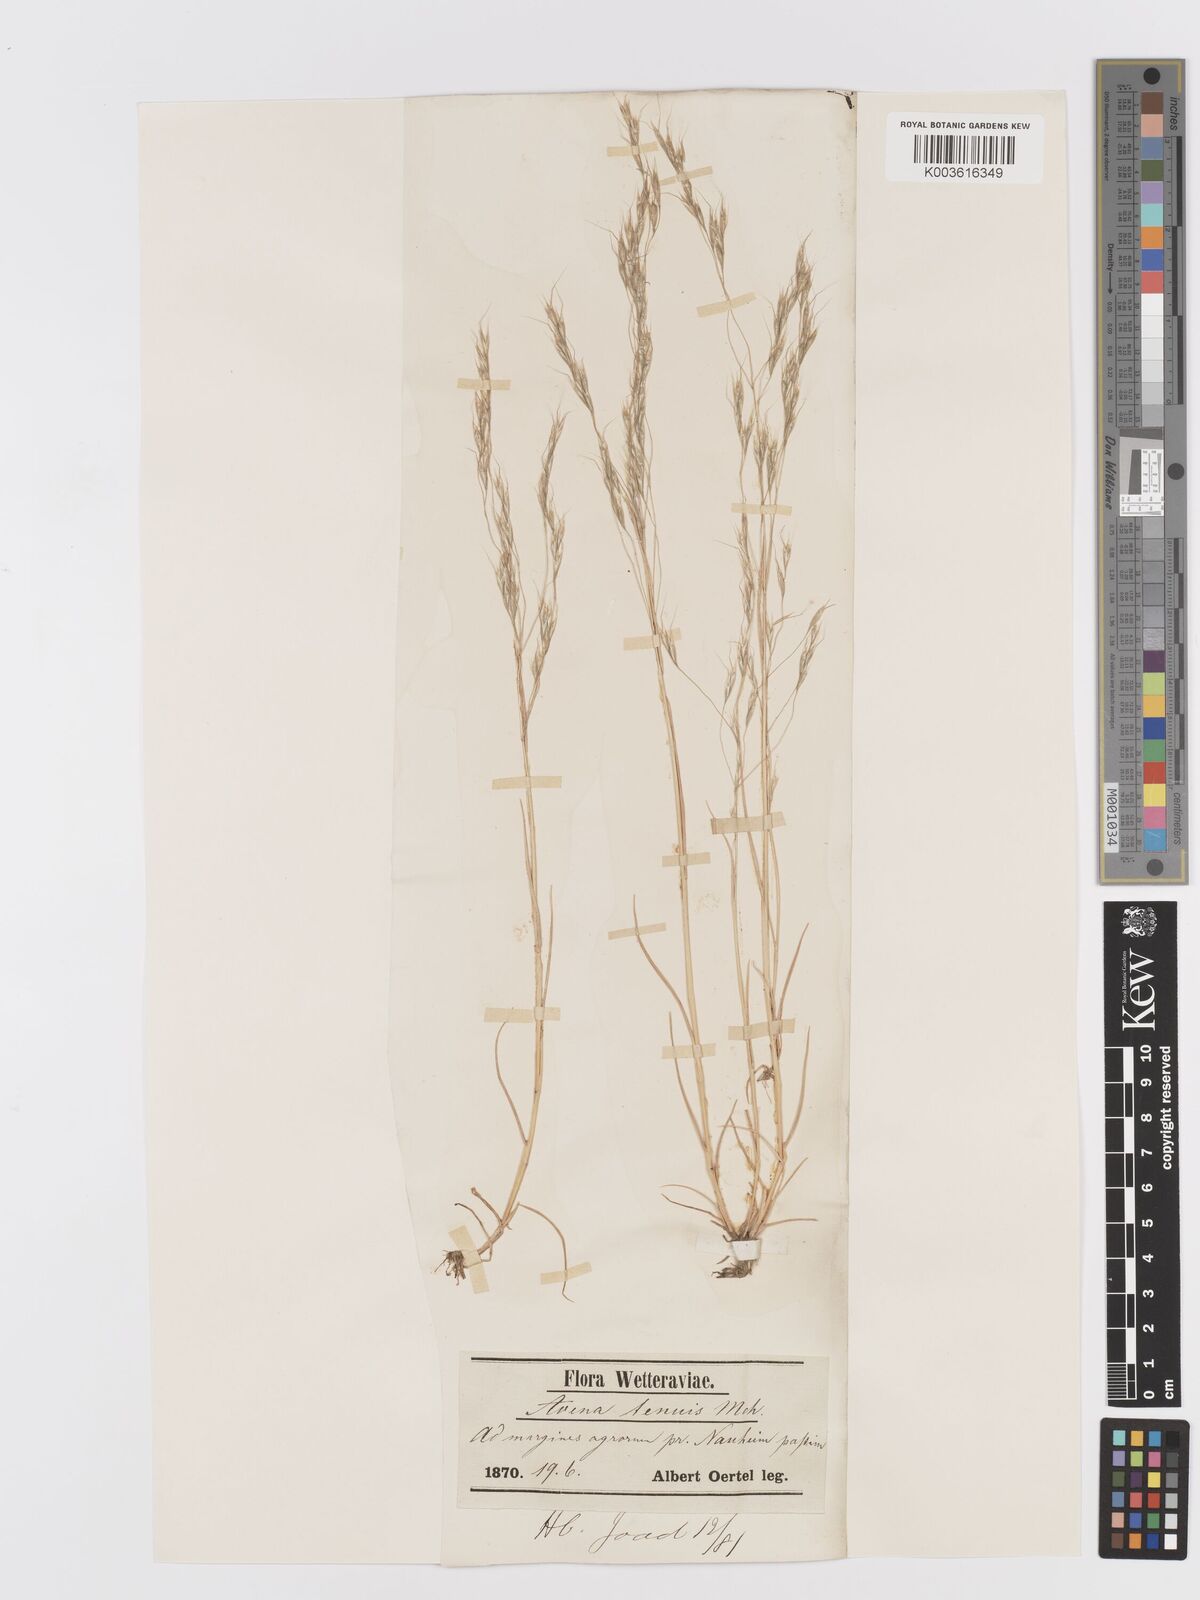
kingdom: Plantae
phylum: Tracheophyta
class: Liliopsida
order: Poales
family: Poaceae
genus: Ventenata
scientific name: Ventenata dubia
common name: North africa grass
